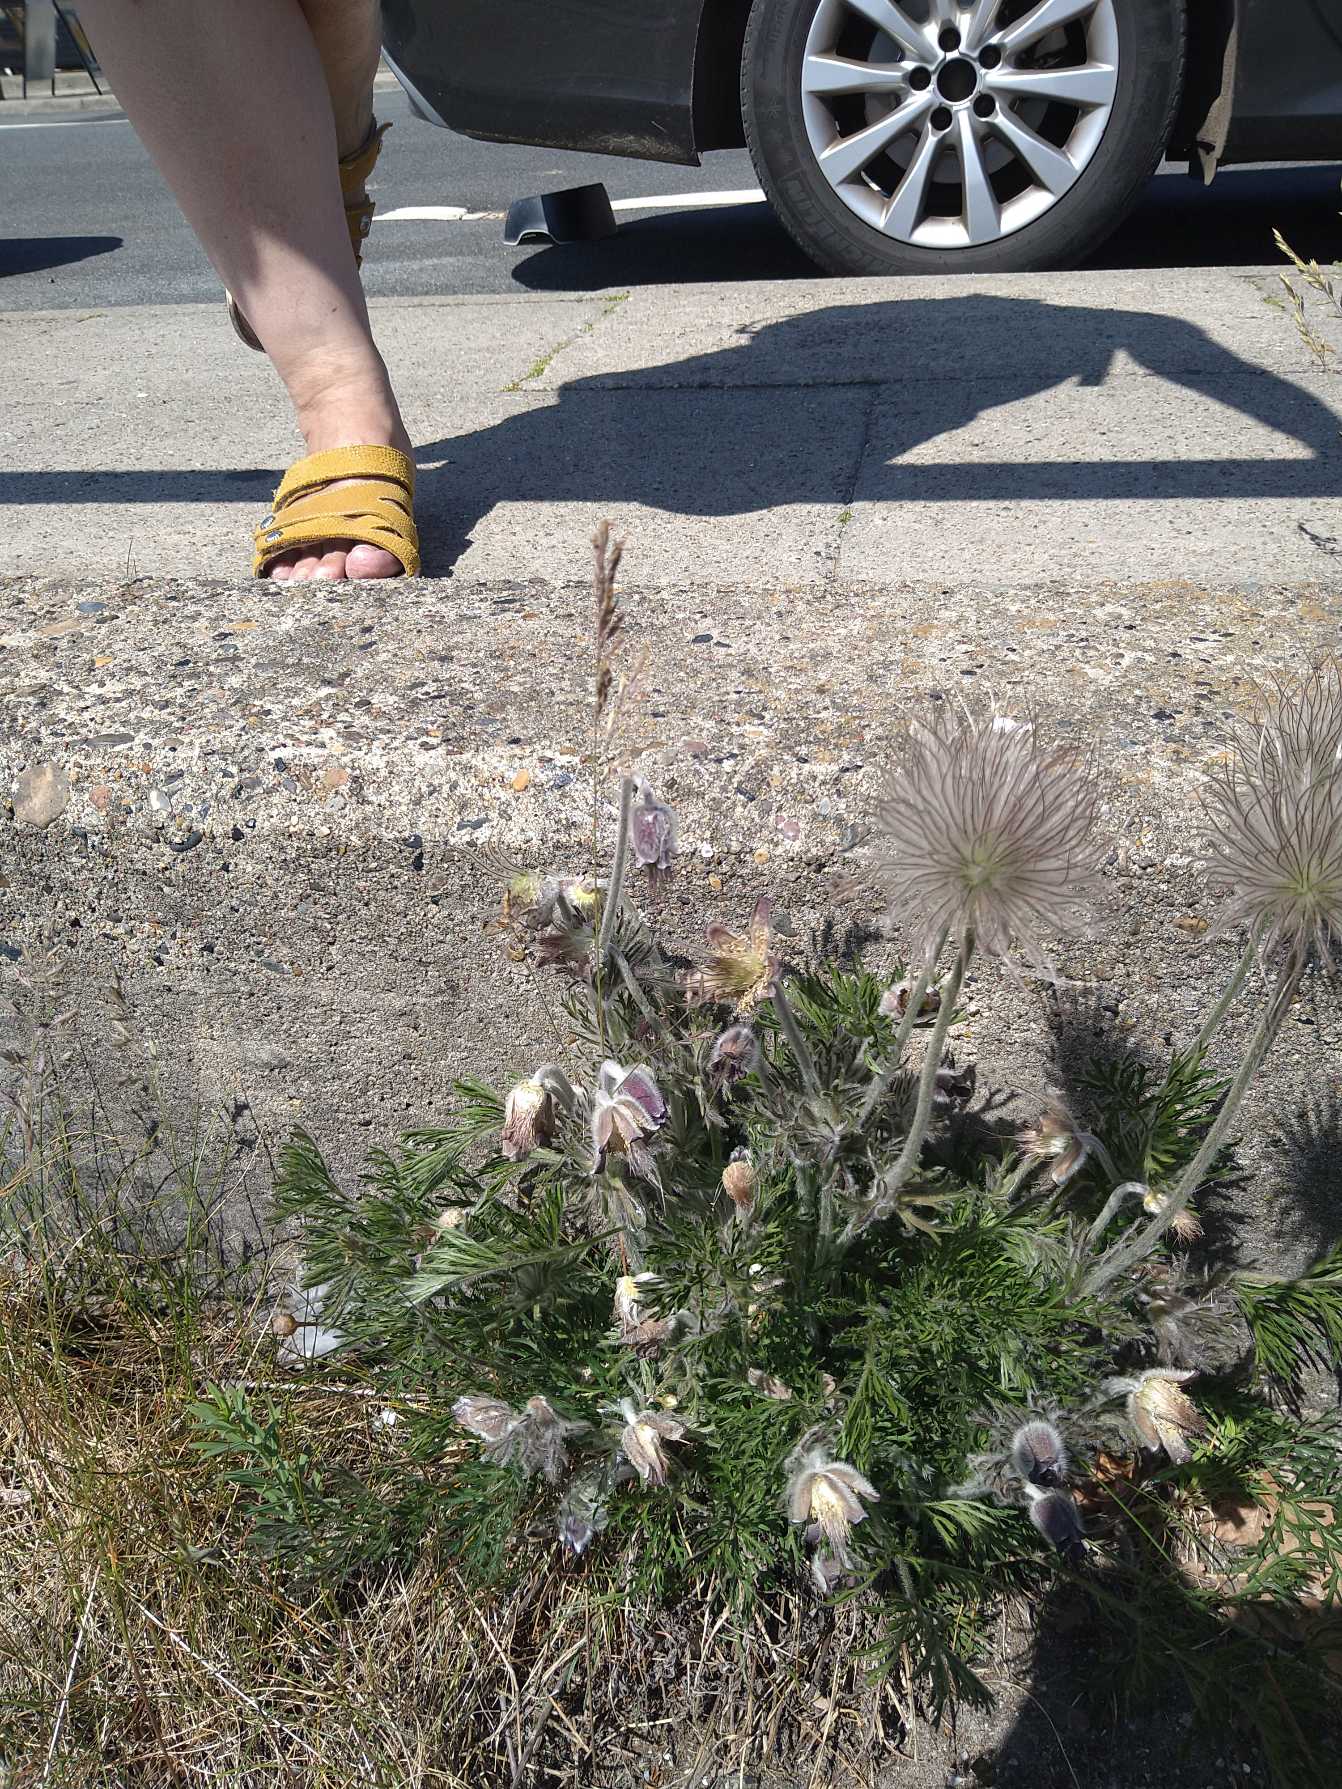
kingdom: Plantae
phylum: Tracheophyta
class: Magnoliopsida
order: Ranunculales
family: Ranunculaceae
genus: Pulsatilla
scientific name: Pulsatilla pratensis
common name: Nikkende kobjælde
